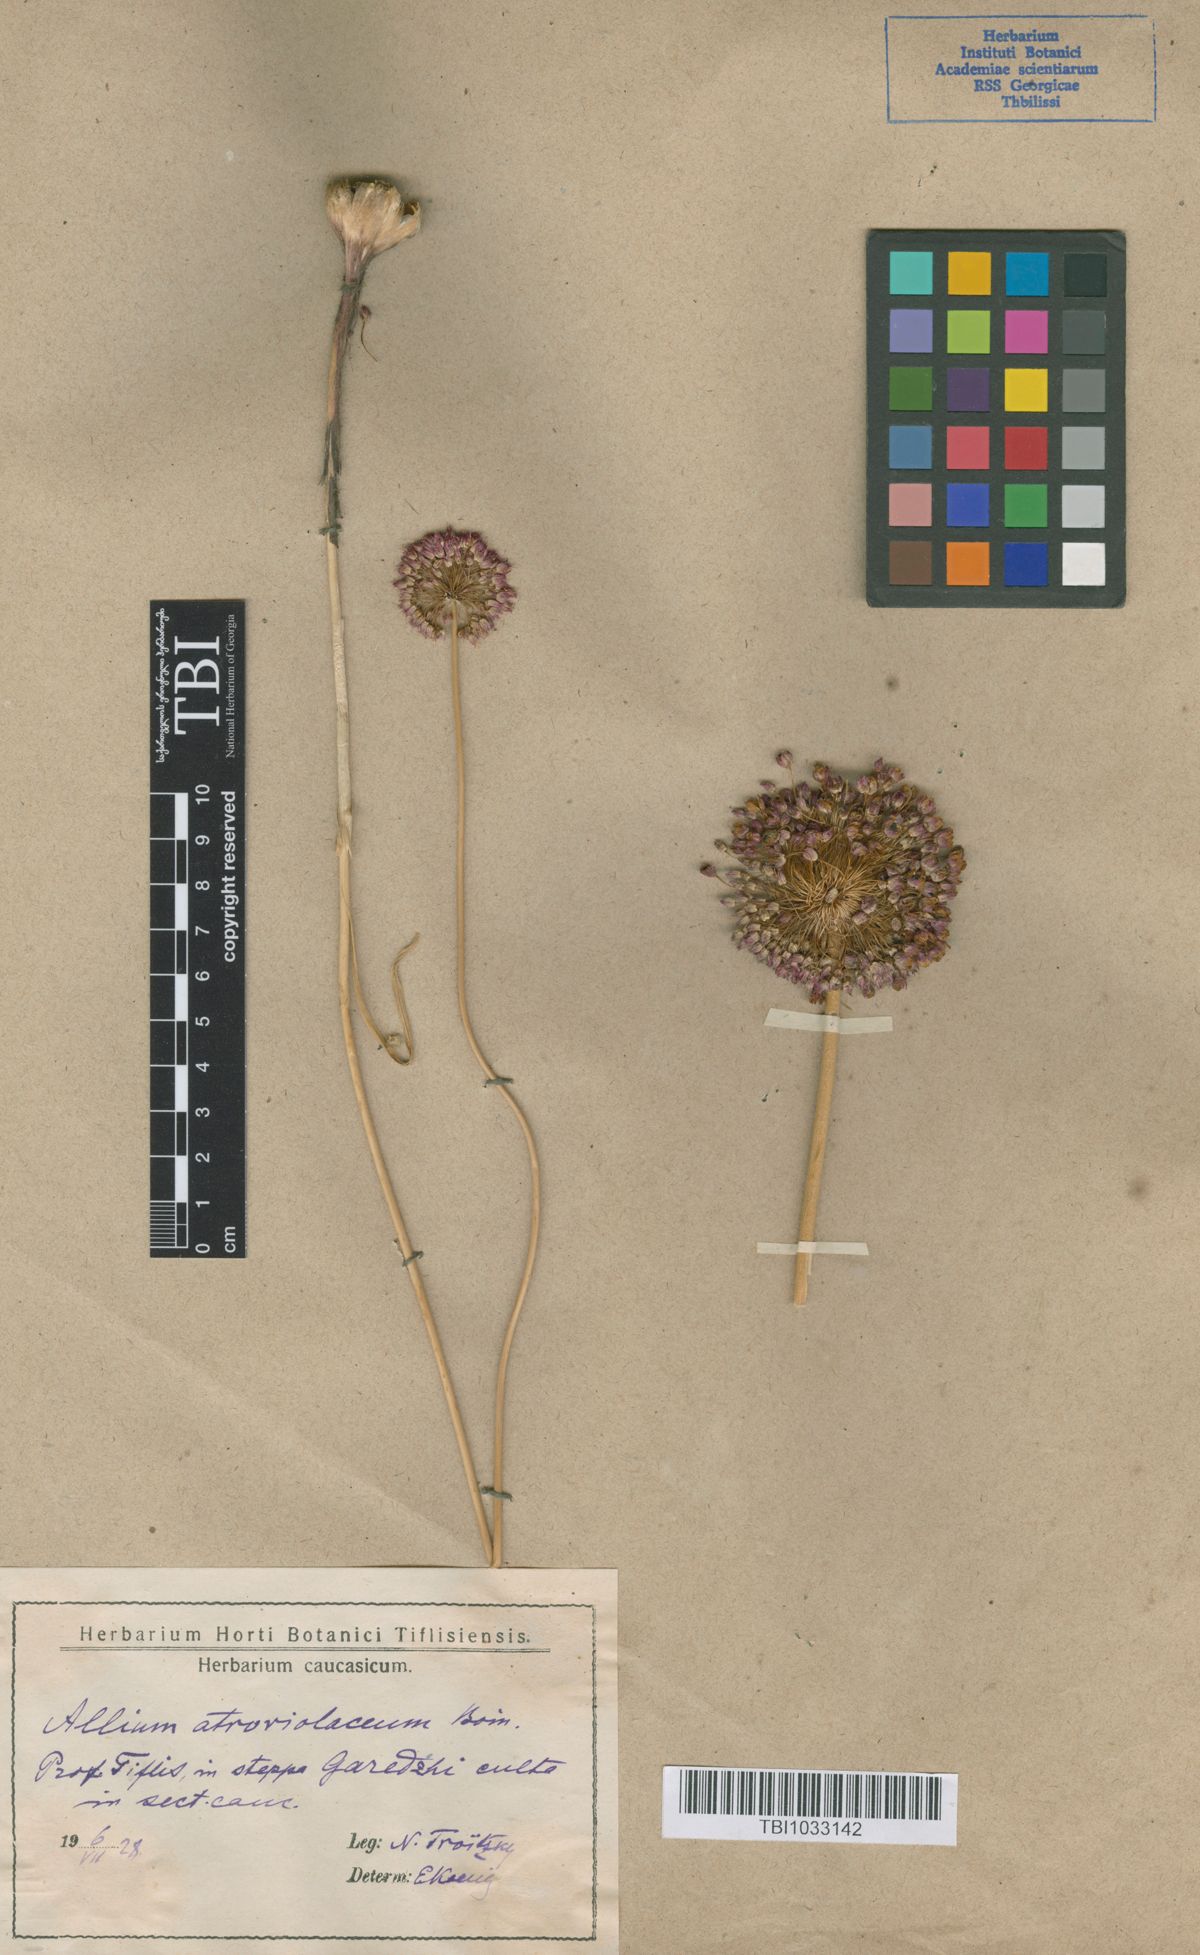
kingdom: Plantae
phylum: Tracheophyta
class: Liliopsida
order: Asparagales
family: Amaryllidaceae
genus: Allium
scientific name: Allium atroviolaceum
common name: Broadleaf wild leek
